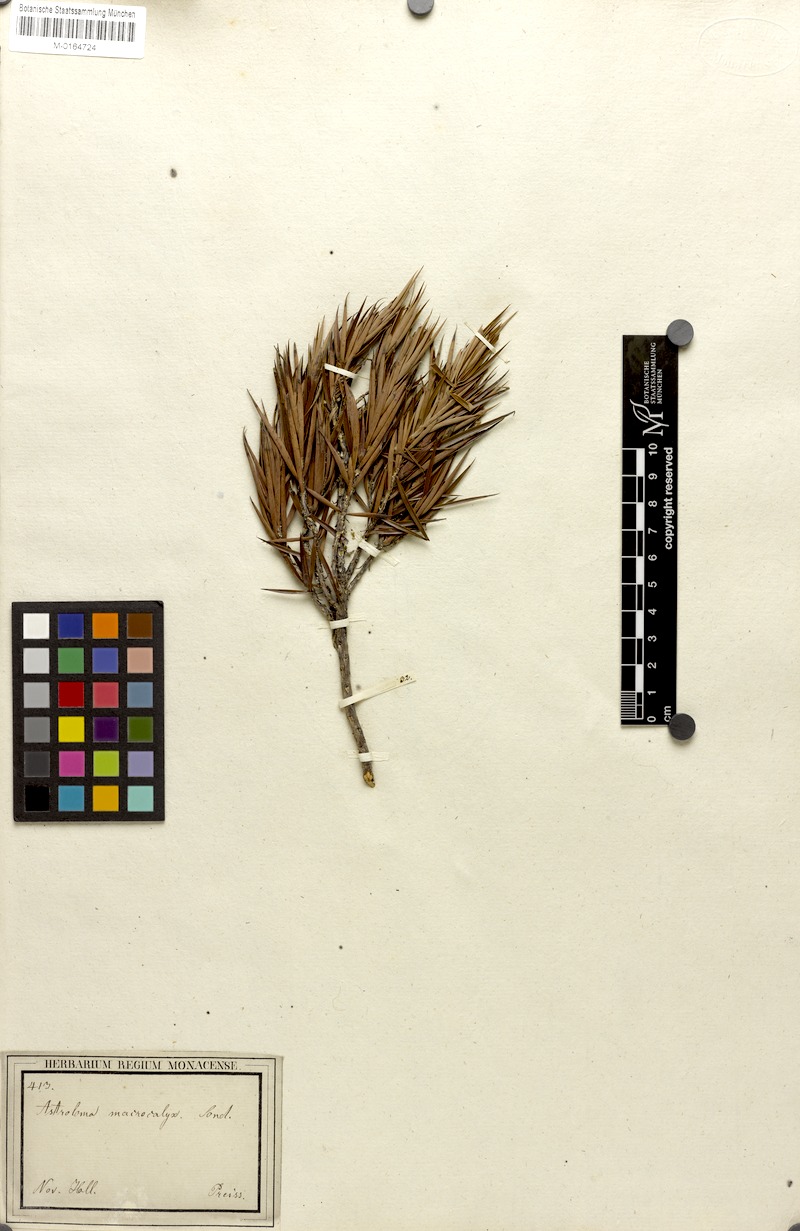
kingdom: Plantae
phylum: Tracheophyta
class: Magnoliopsida
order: Ericales
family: Ericaceae
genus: Styphelia
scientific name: Styphelia macrocalyx
